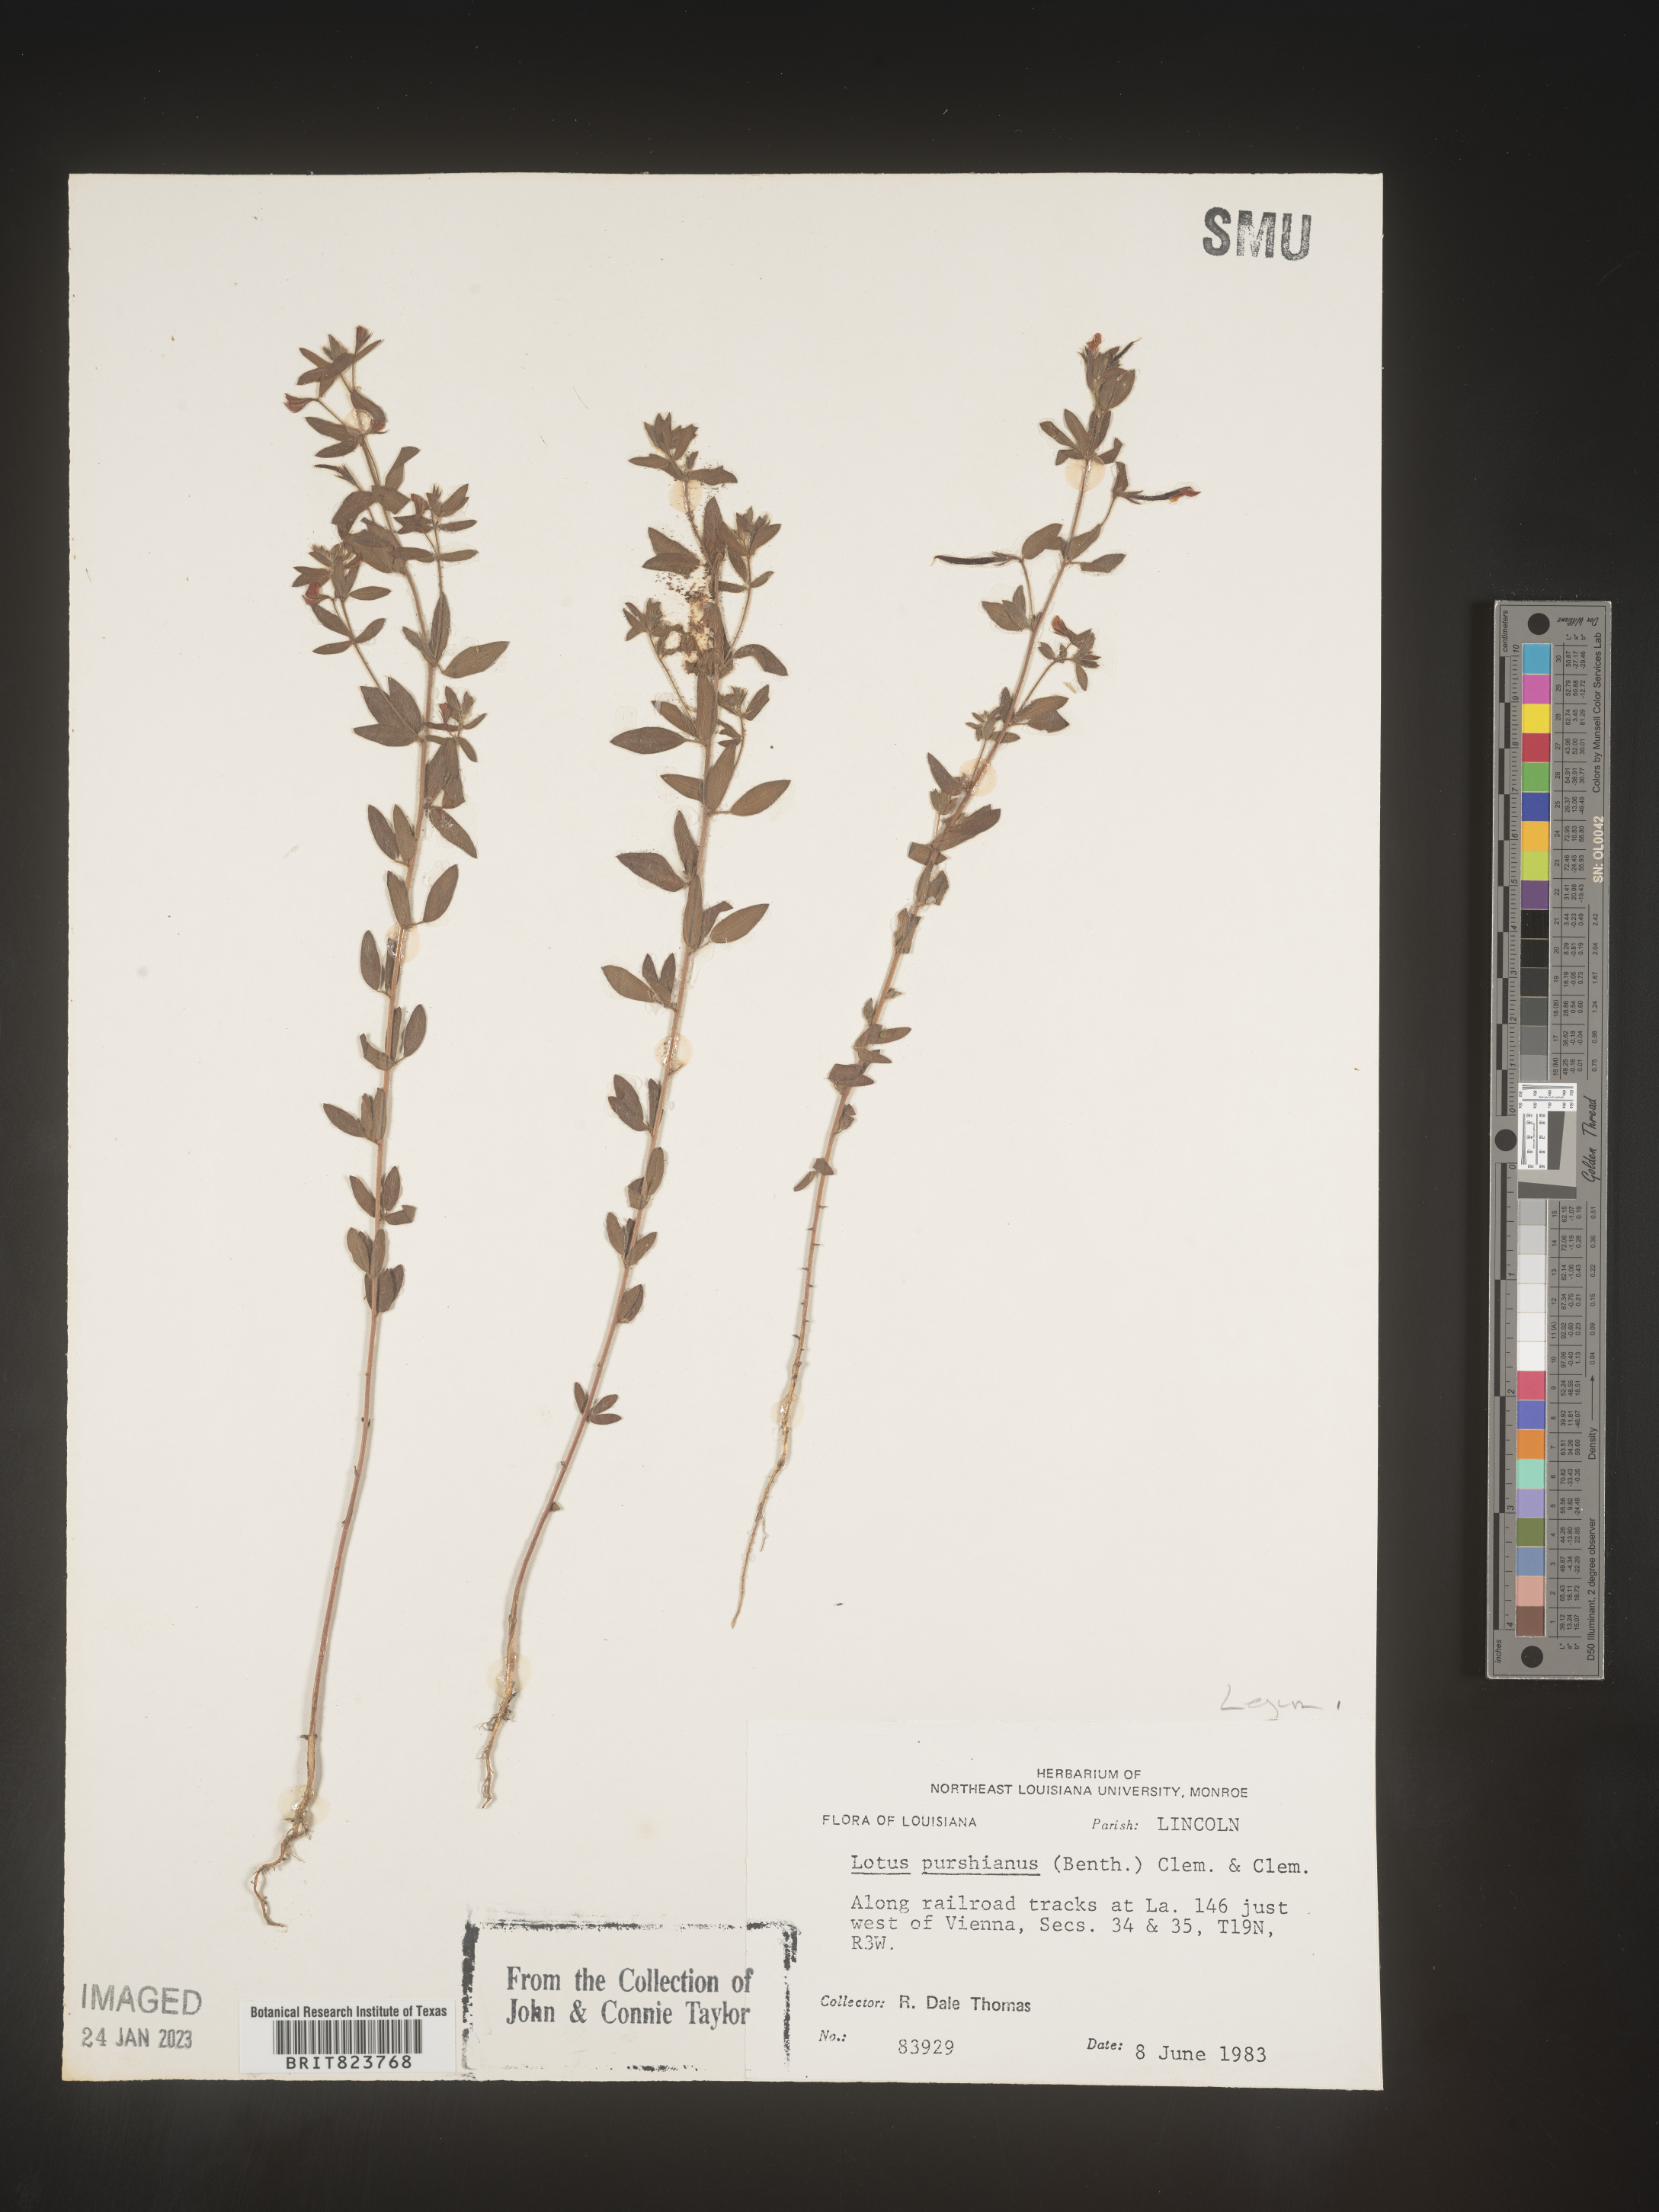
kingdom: Plantae
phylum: Tracheophyta
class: Magnoliopsida
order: Fabales
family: Fabaceae
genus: Acmispon
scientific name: Acmispon americanus
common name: American bird's-foot trefoil
